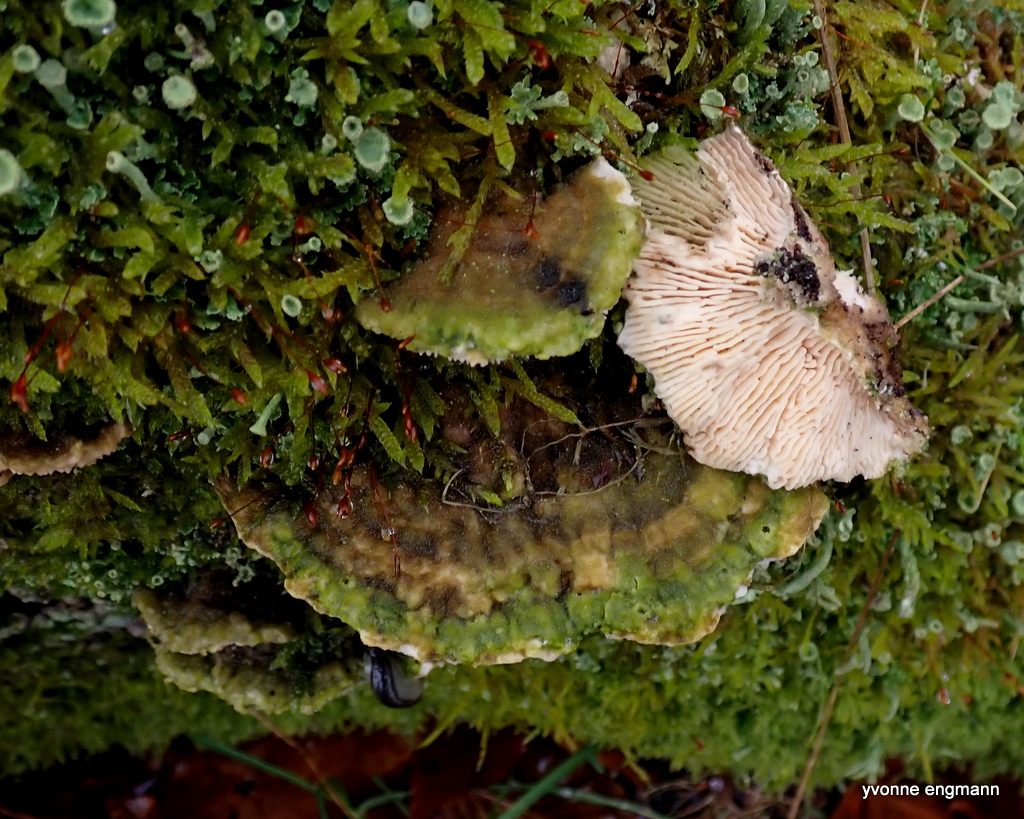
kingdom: Fungi
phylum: Basidiomycota
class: Agaricomycetes
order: Polyporales
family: Fomitopsidaceae
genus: Daedalea
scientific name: Daedalea quercina
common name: ege-labyrintsvamp
